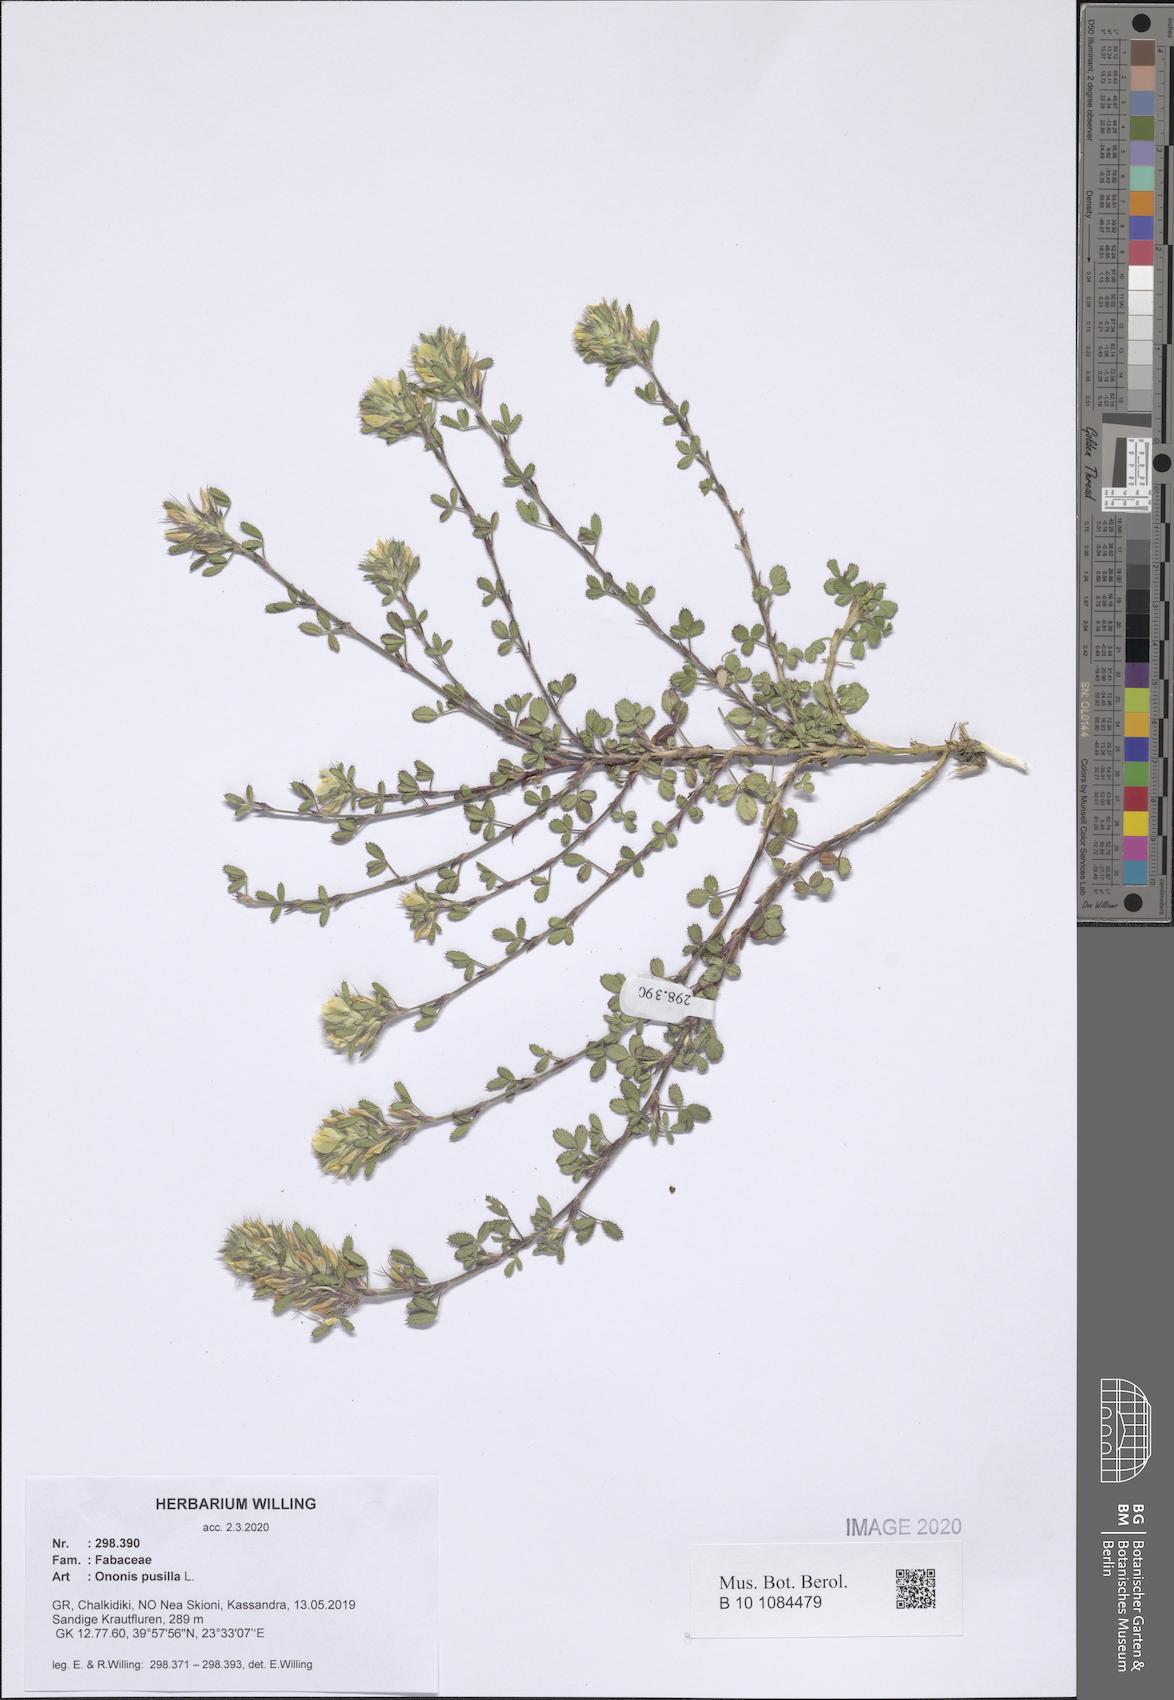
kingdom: Plantae
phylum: Tracheophyta
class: Magnoliopsida
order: Fabales
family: Fabaceae
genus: Ononis
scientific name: Ononis pusilla
